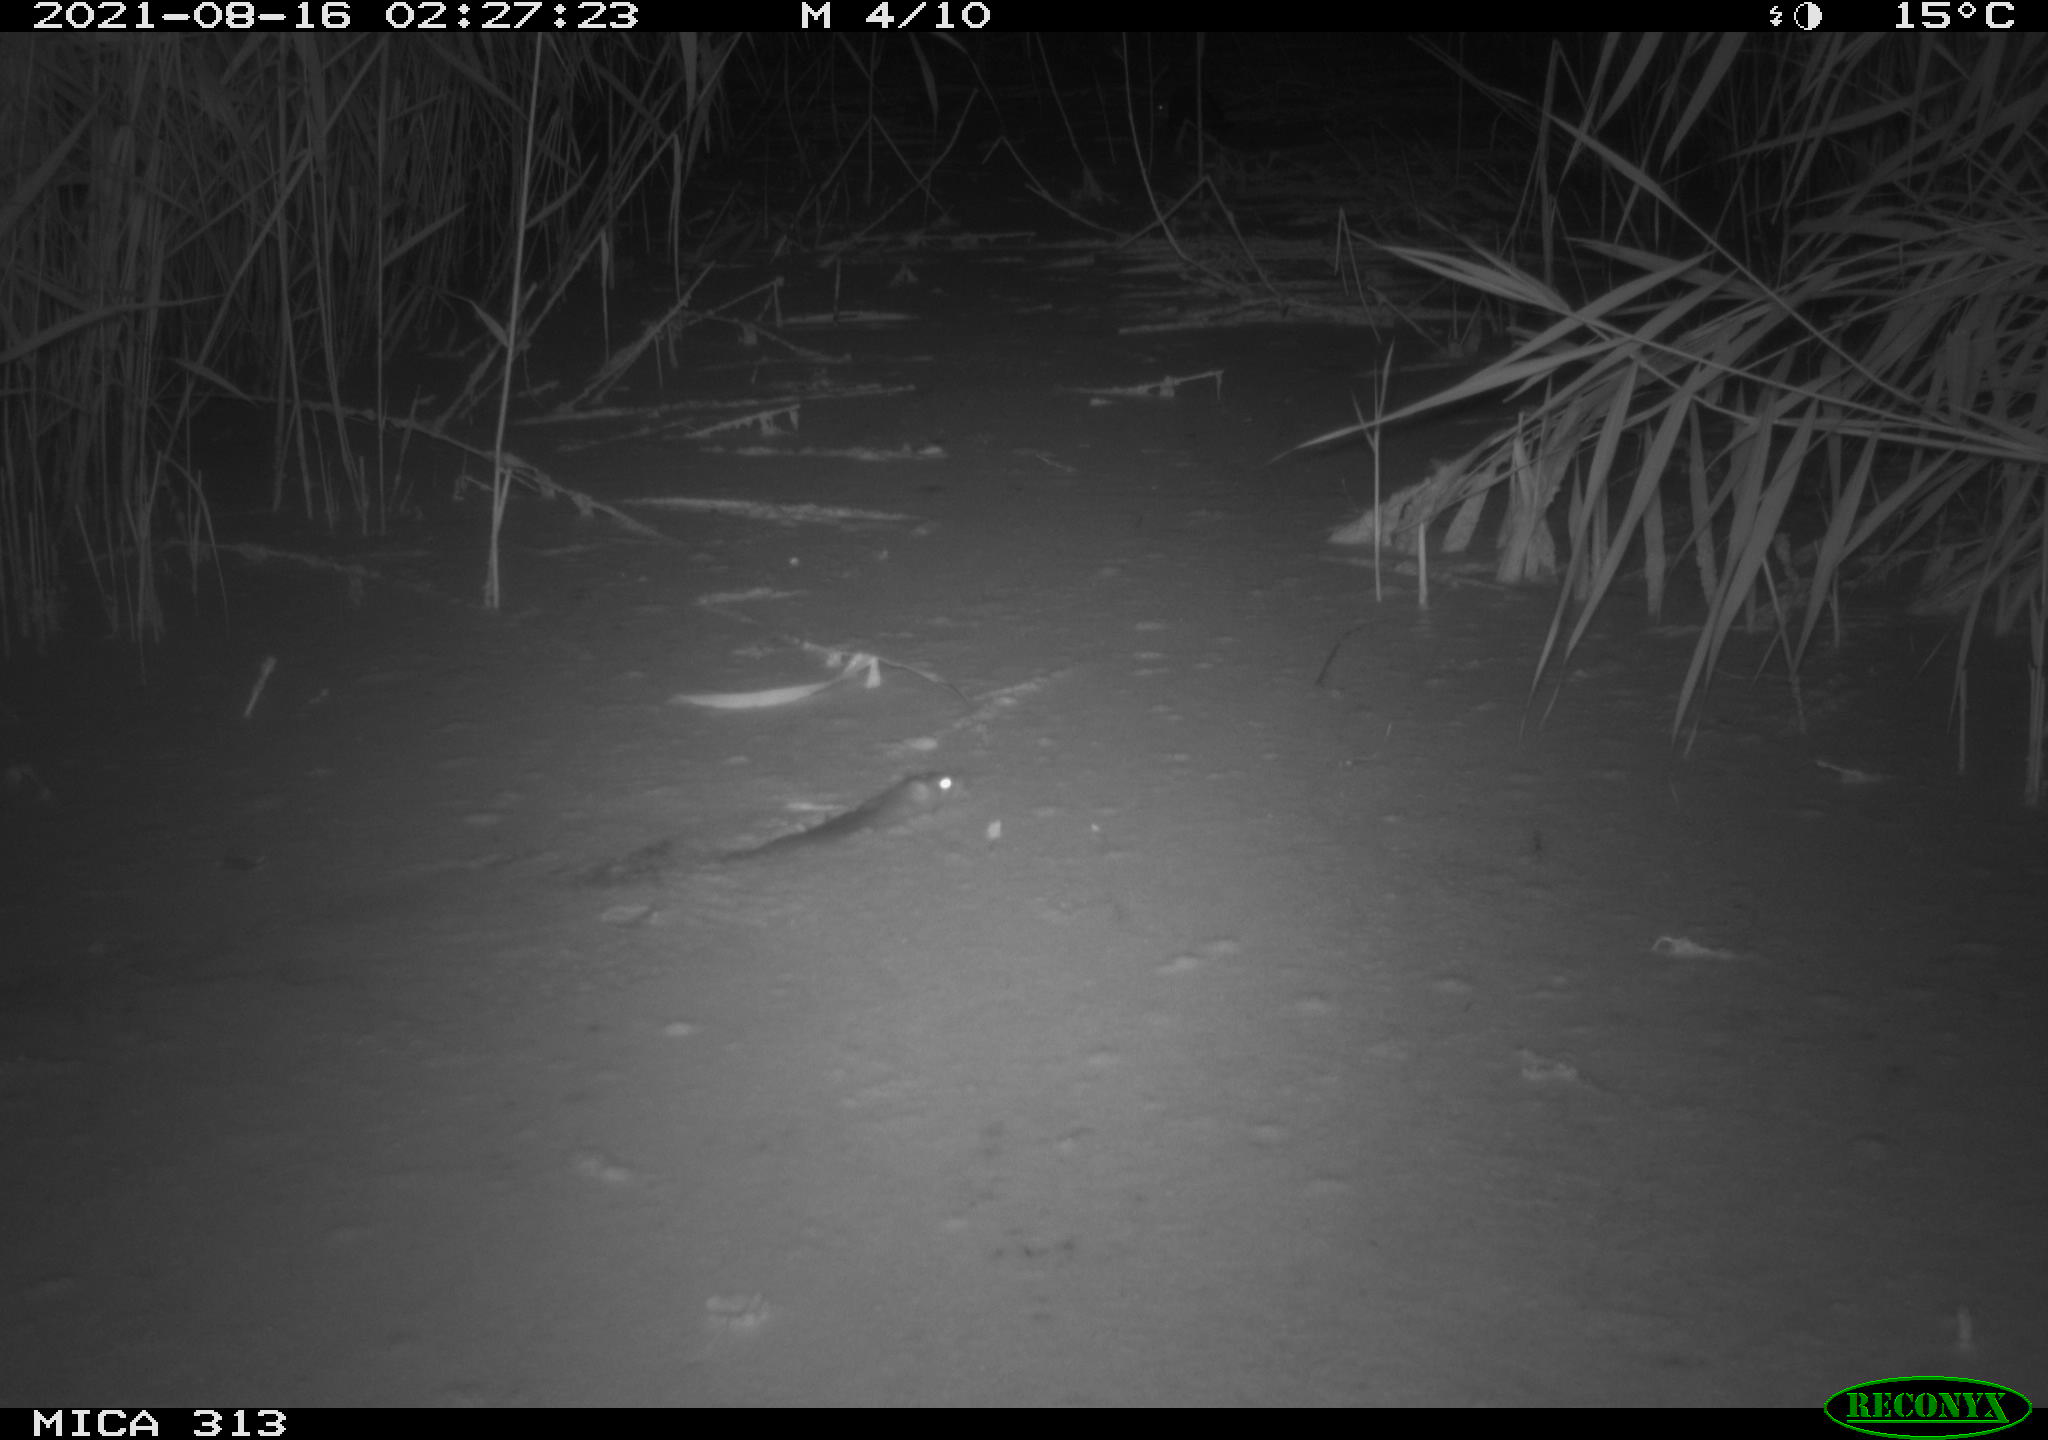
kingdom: Animalia
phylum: Chordata
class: Mammalia
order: Rodentia
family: Muridae
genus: Rattus
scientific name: Rattus norvegicus
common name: Brown rat
